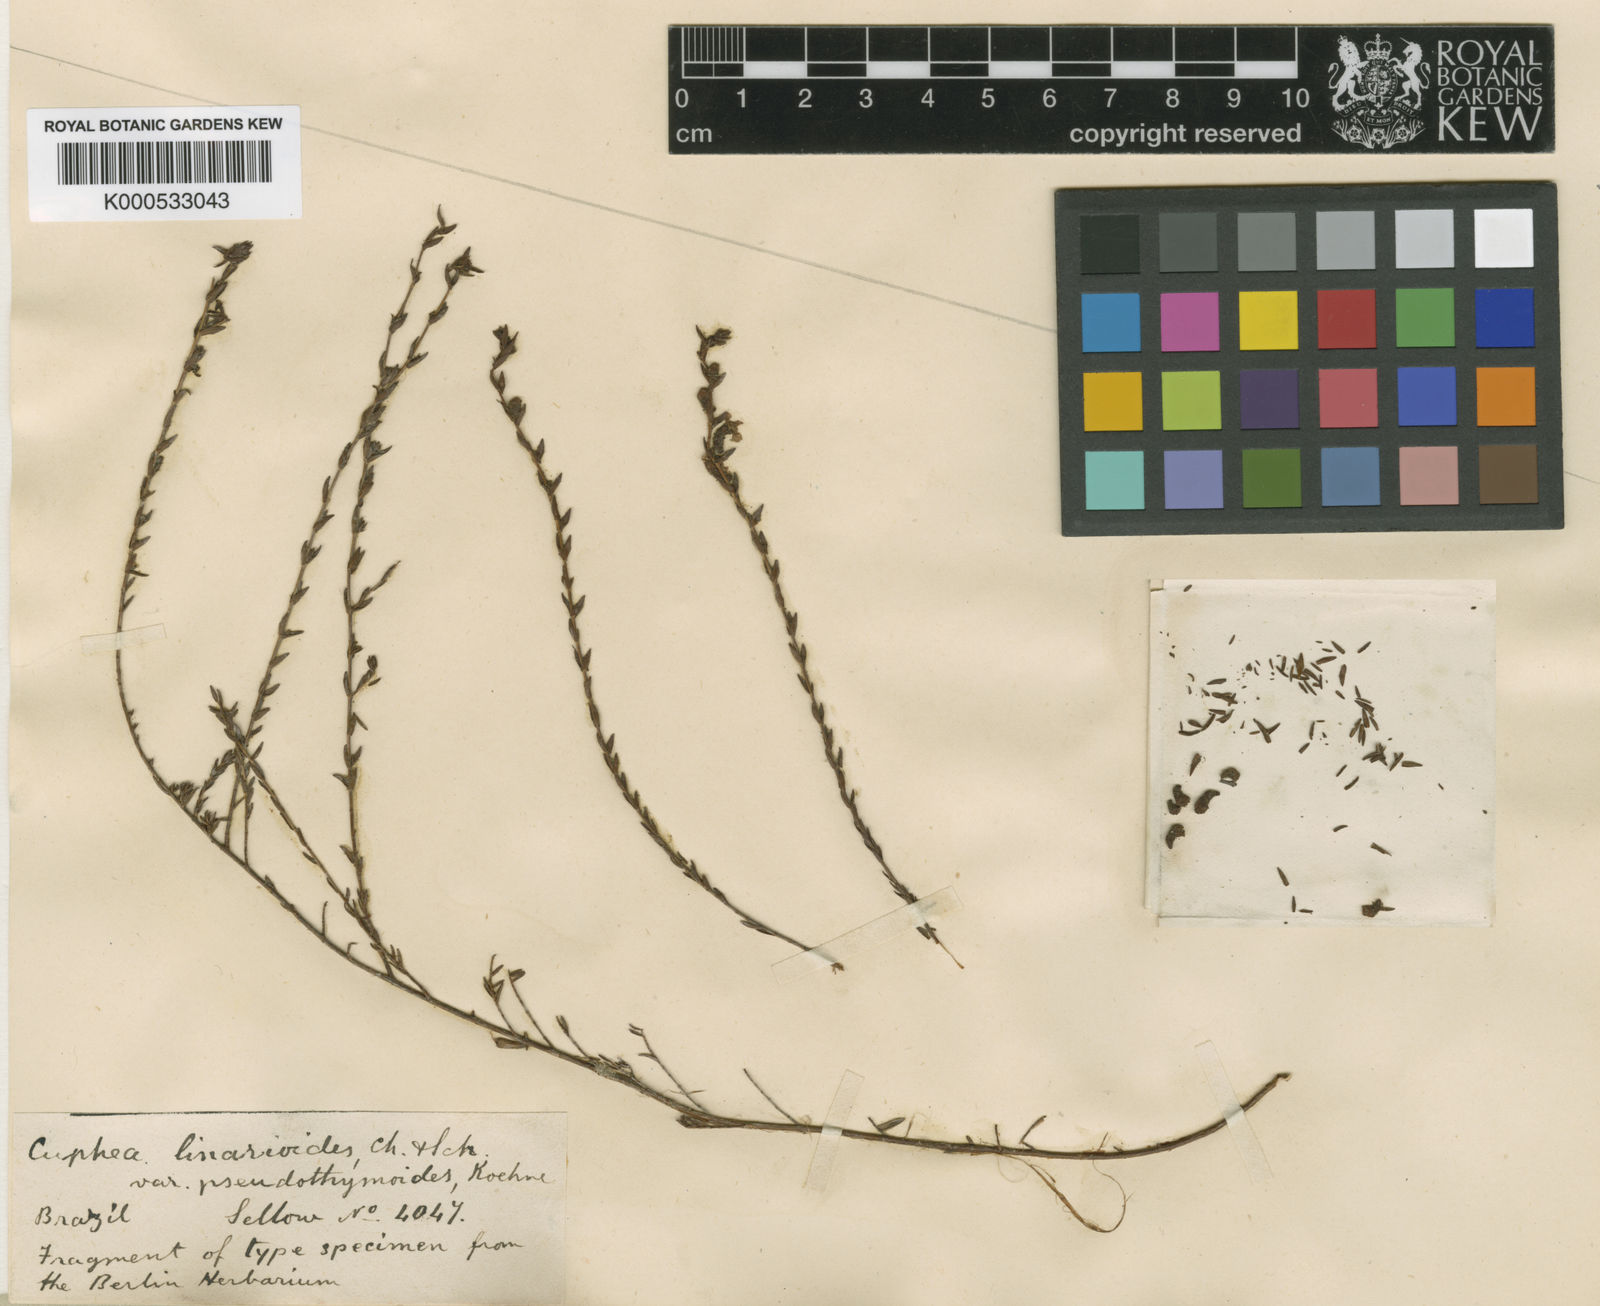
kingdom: Plantae
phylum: Tracheophyta
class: Magnoliopsida
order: Myrtales
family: Lythraceae
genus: Cuphea
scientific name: Cuphea linarioides
